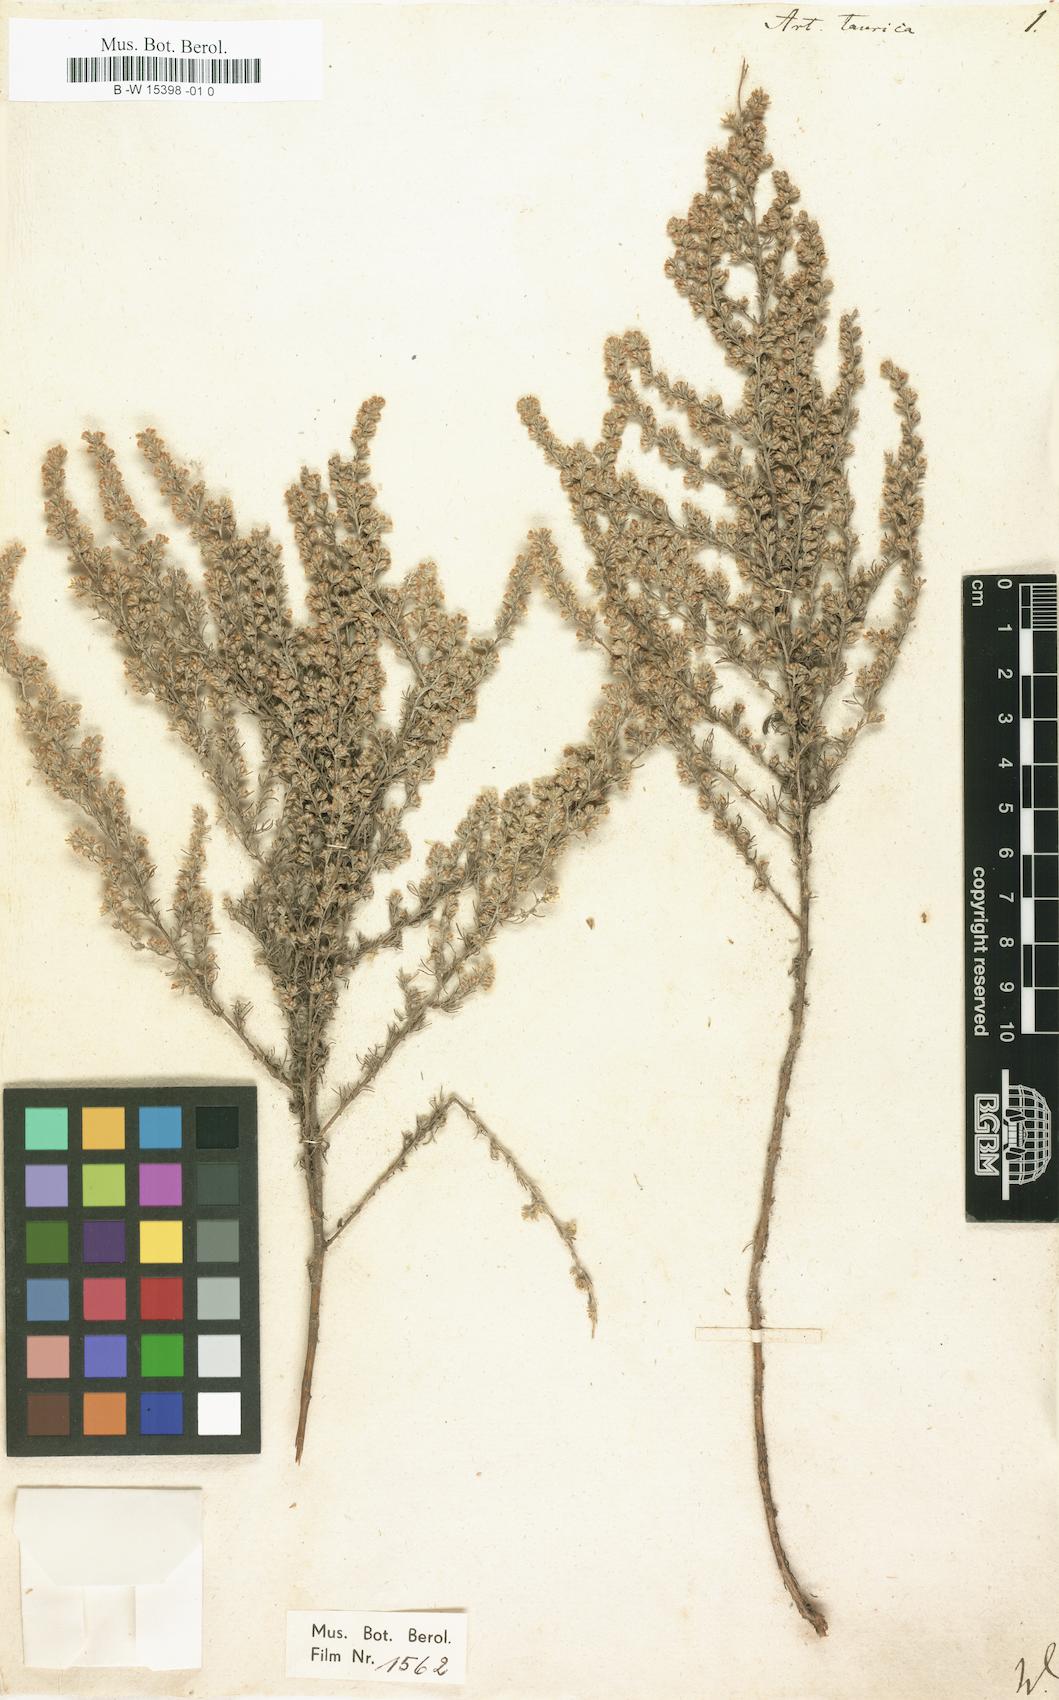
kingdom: Plantae
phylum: Tracheophyta
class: Magnoliopsida
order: Asterales
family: Asteraceae
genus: Artemisia
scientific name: Artemisia taurica
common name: Tauric wormwood
